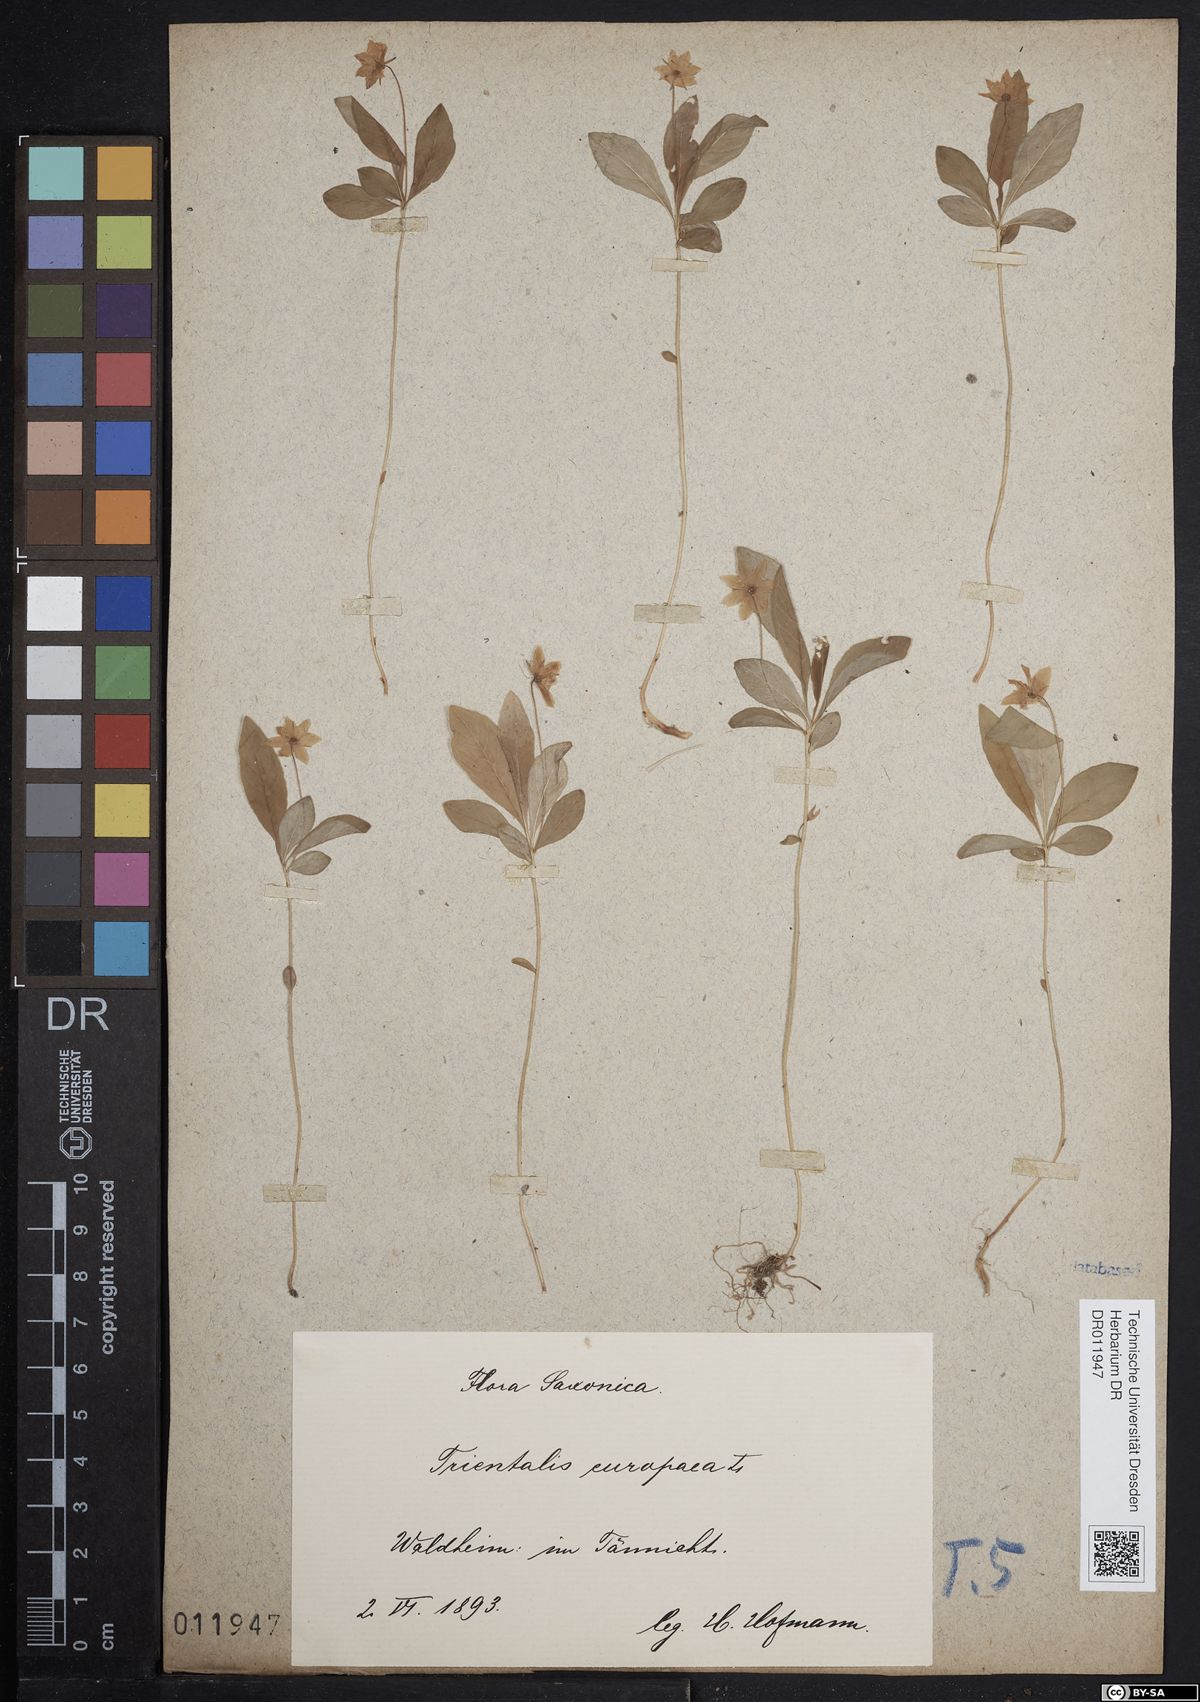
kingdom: Plantae
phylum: Tracheophyta
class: Magnoliopsida
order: Ericales
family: Primulaceae
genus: Lysimachia
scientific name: Lysimachia europaea
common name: Arctic starflower
